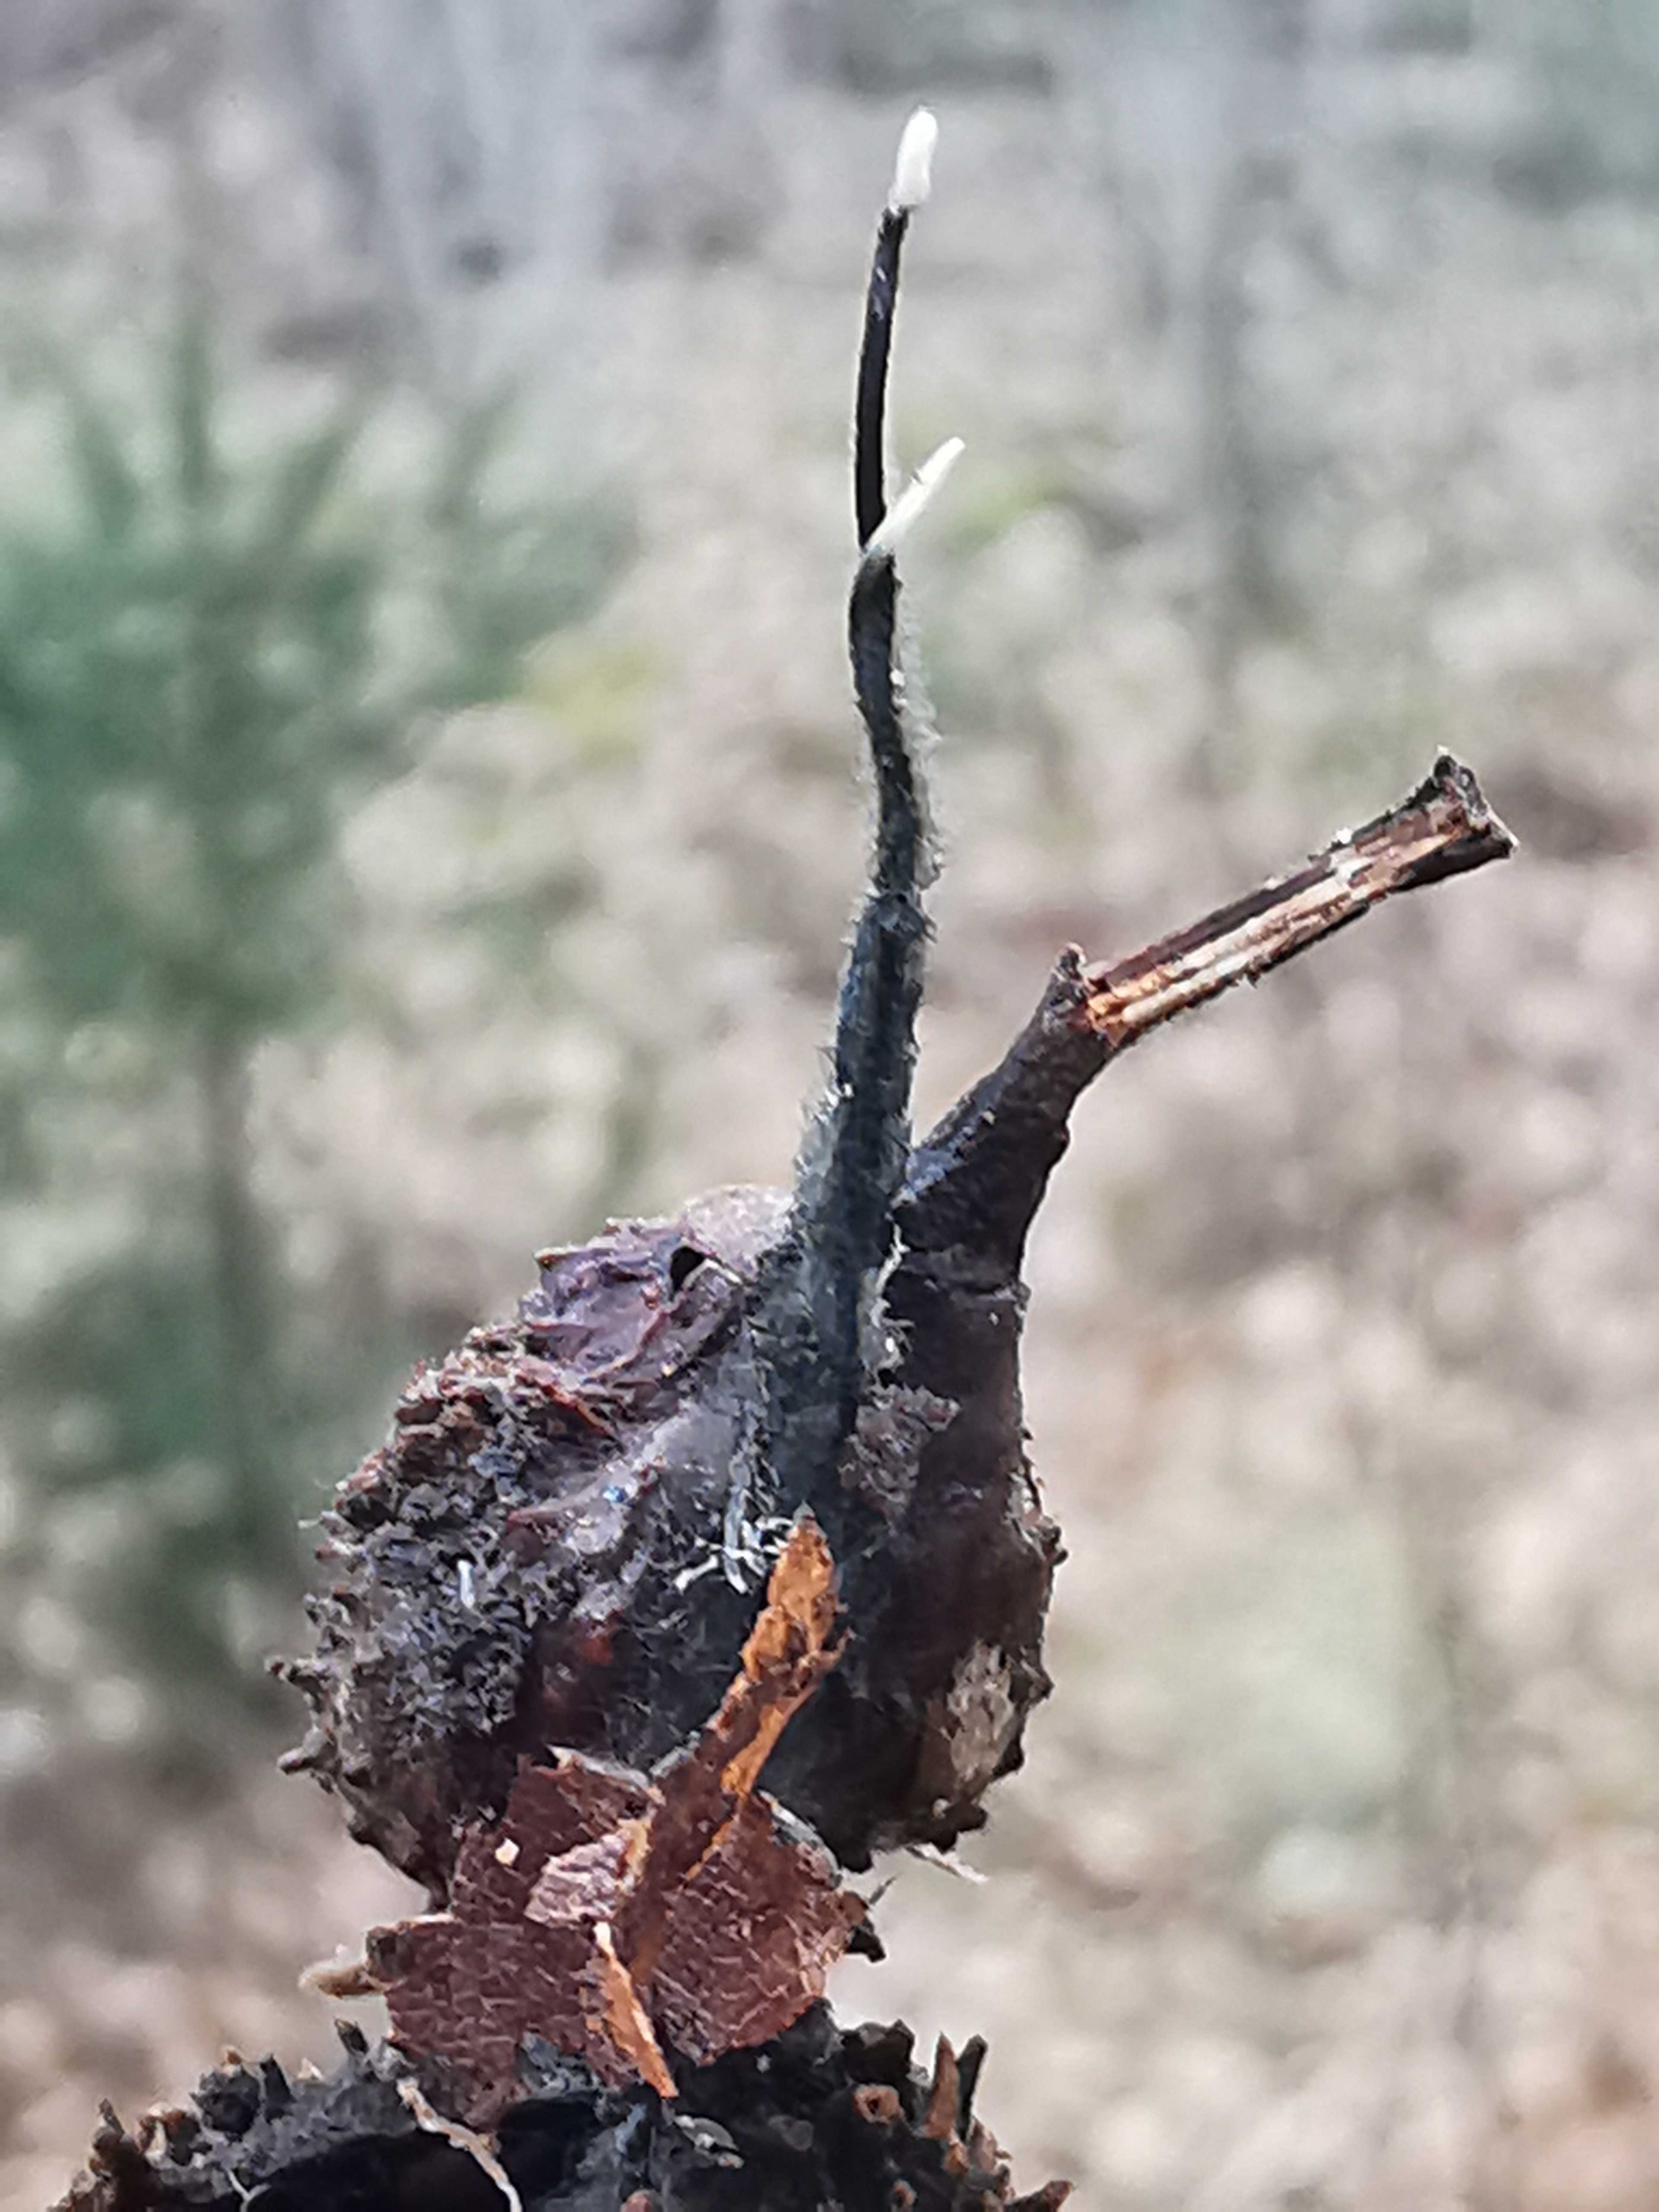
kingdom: Fungi
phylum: Ascomycota
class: Sordariomycetes
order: Xylariales
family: Xylariaceae
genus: Xylaria
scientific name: Xylaria carpophila
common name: bogskål-stødsvamp
